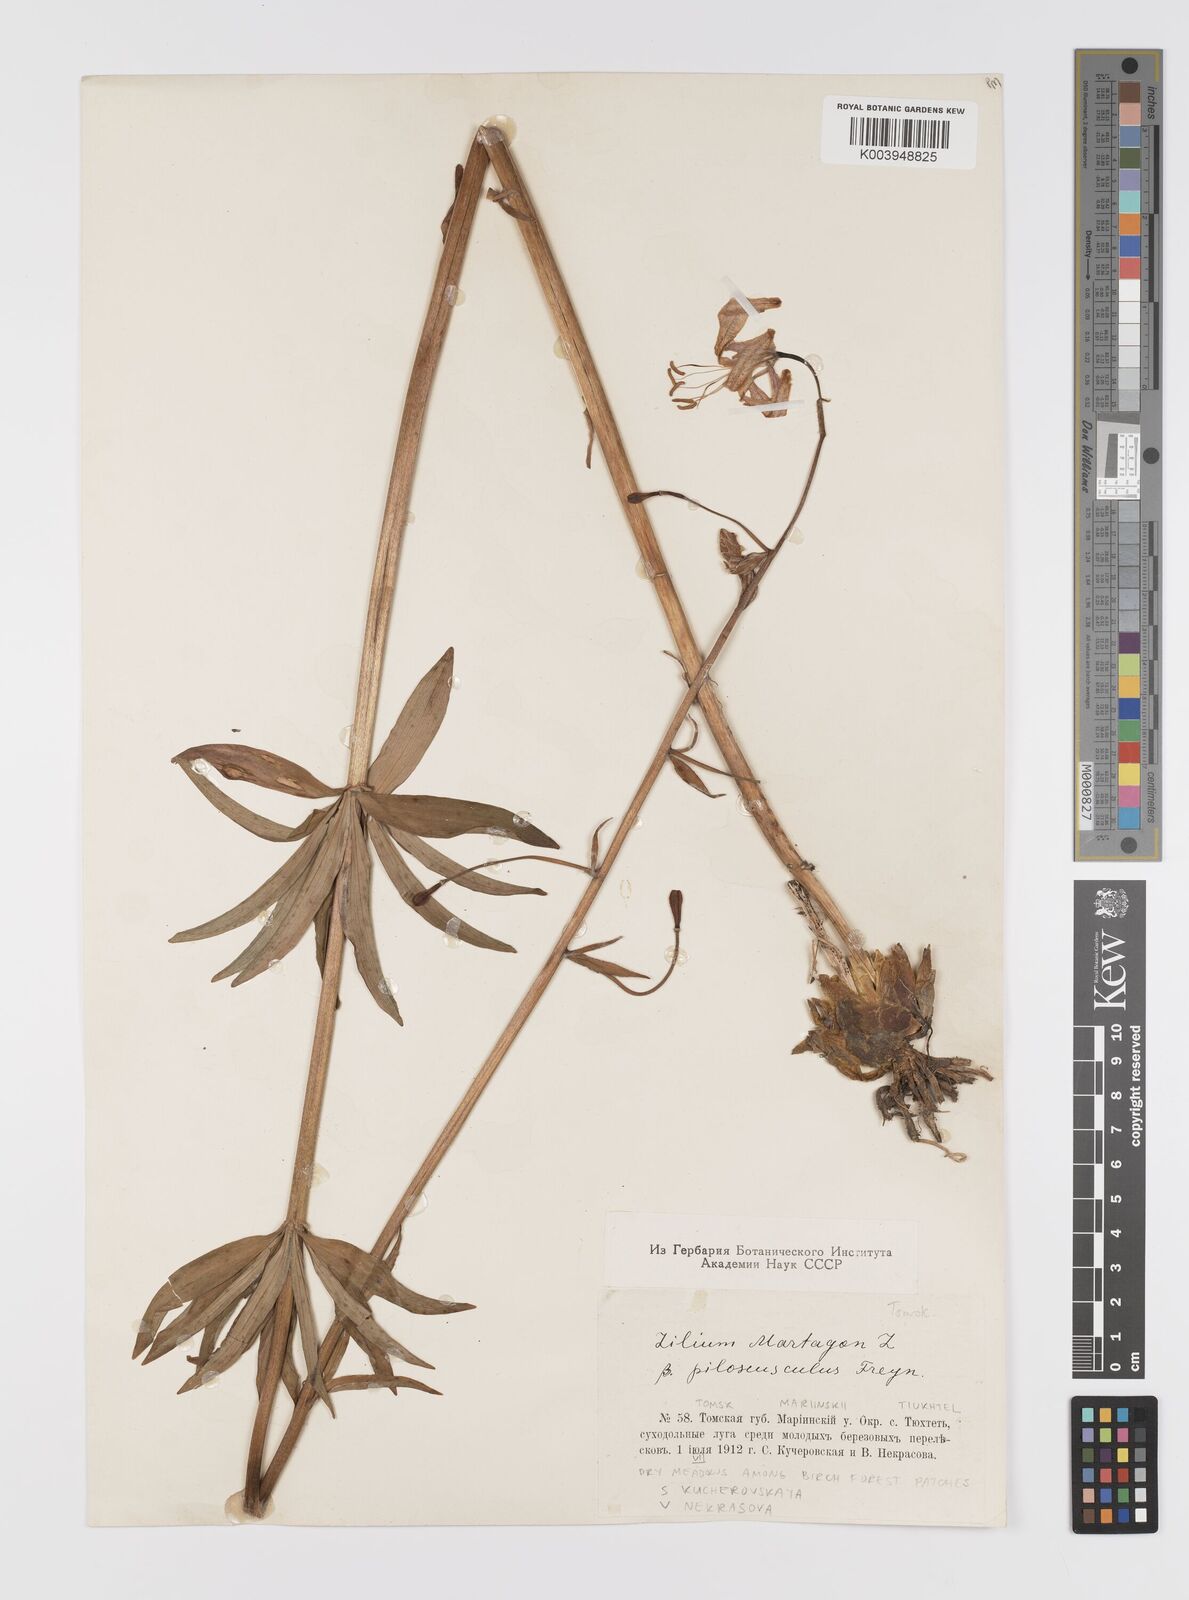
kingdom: Plantae
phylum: Tracheophyta
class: Liliopsida
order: Liliales
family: Liliaceae
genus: Lilium
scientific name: Lilium martagon
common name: Martagon lily
